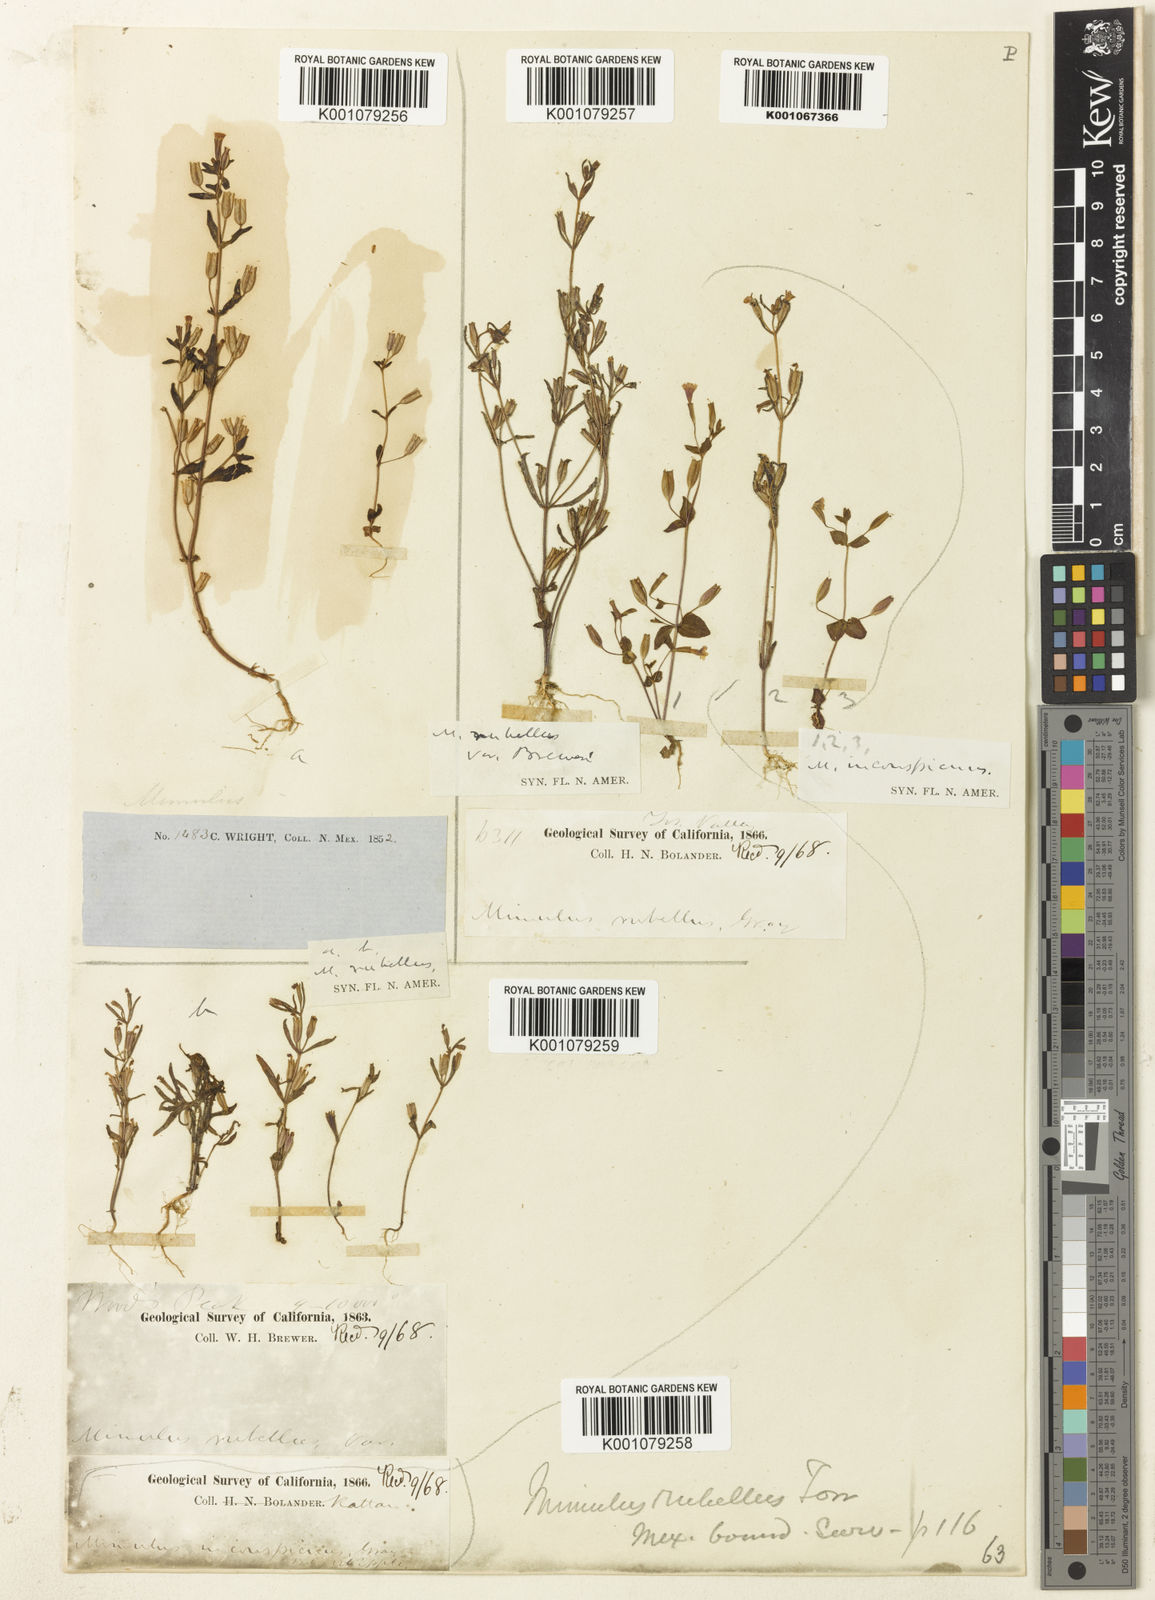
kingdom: Plantae
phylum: Tracheophyta
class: Magnoliopsida
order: Lamiales
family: Phrymaceae
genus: Erythranthe
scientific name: Erythranthe rubella
